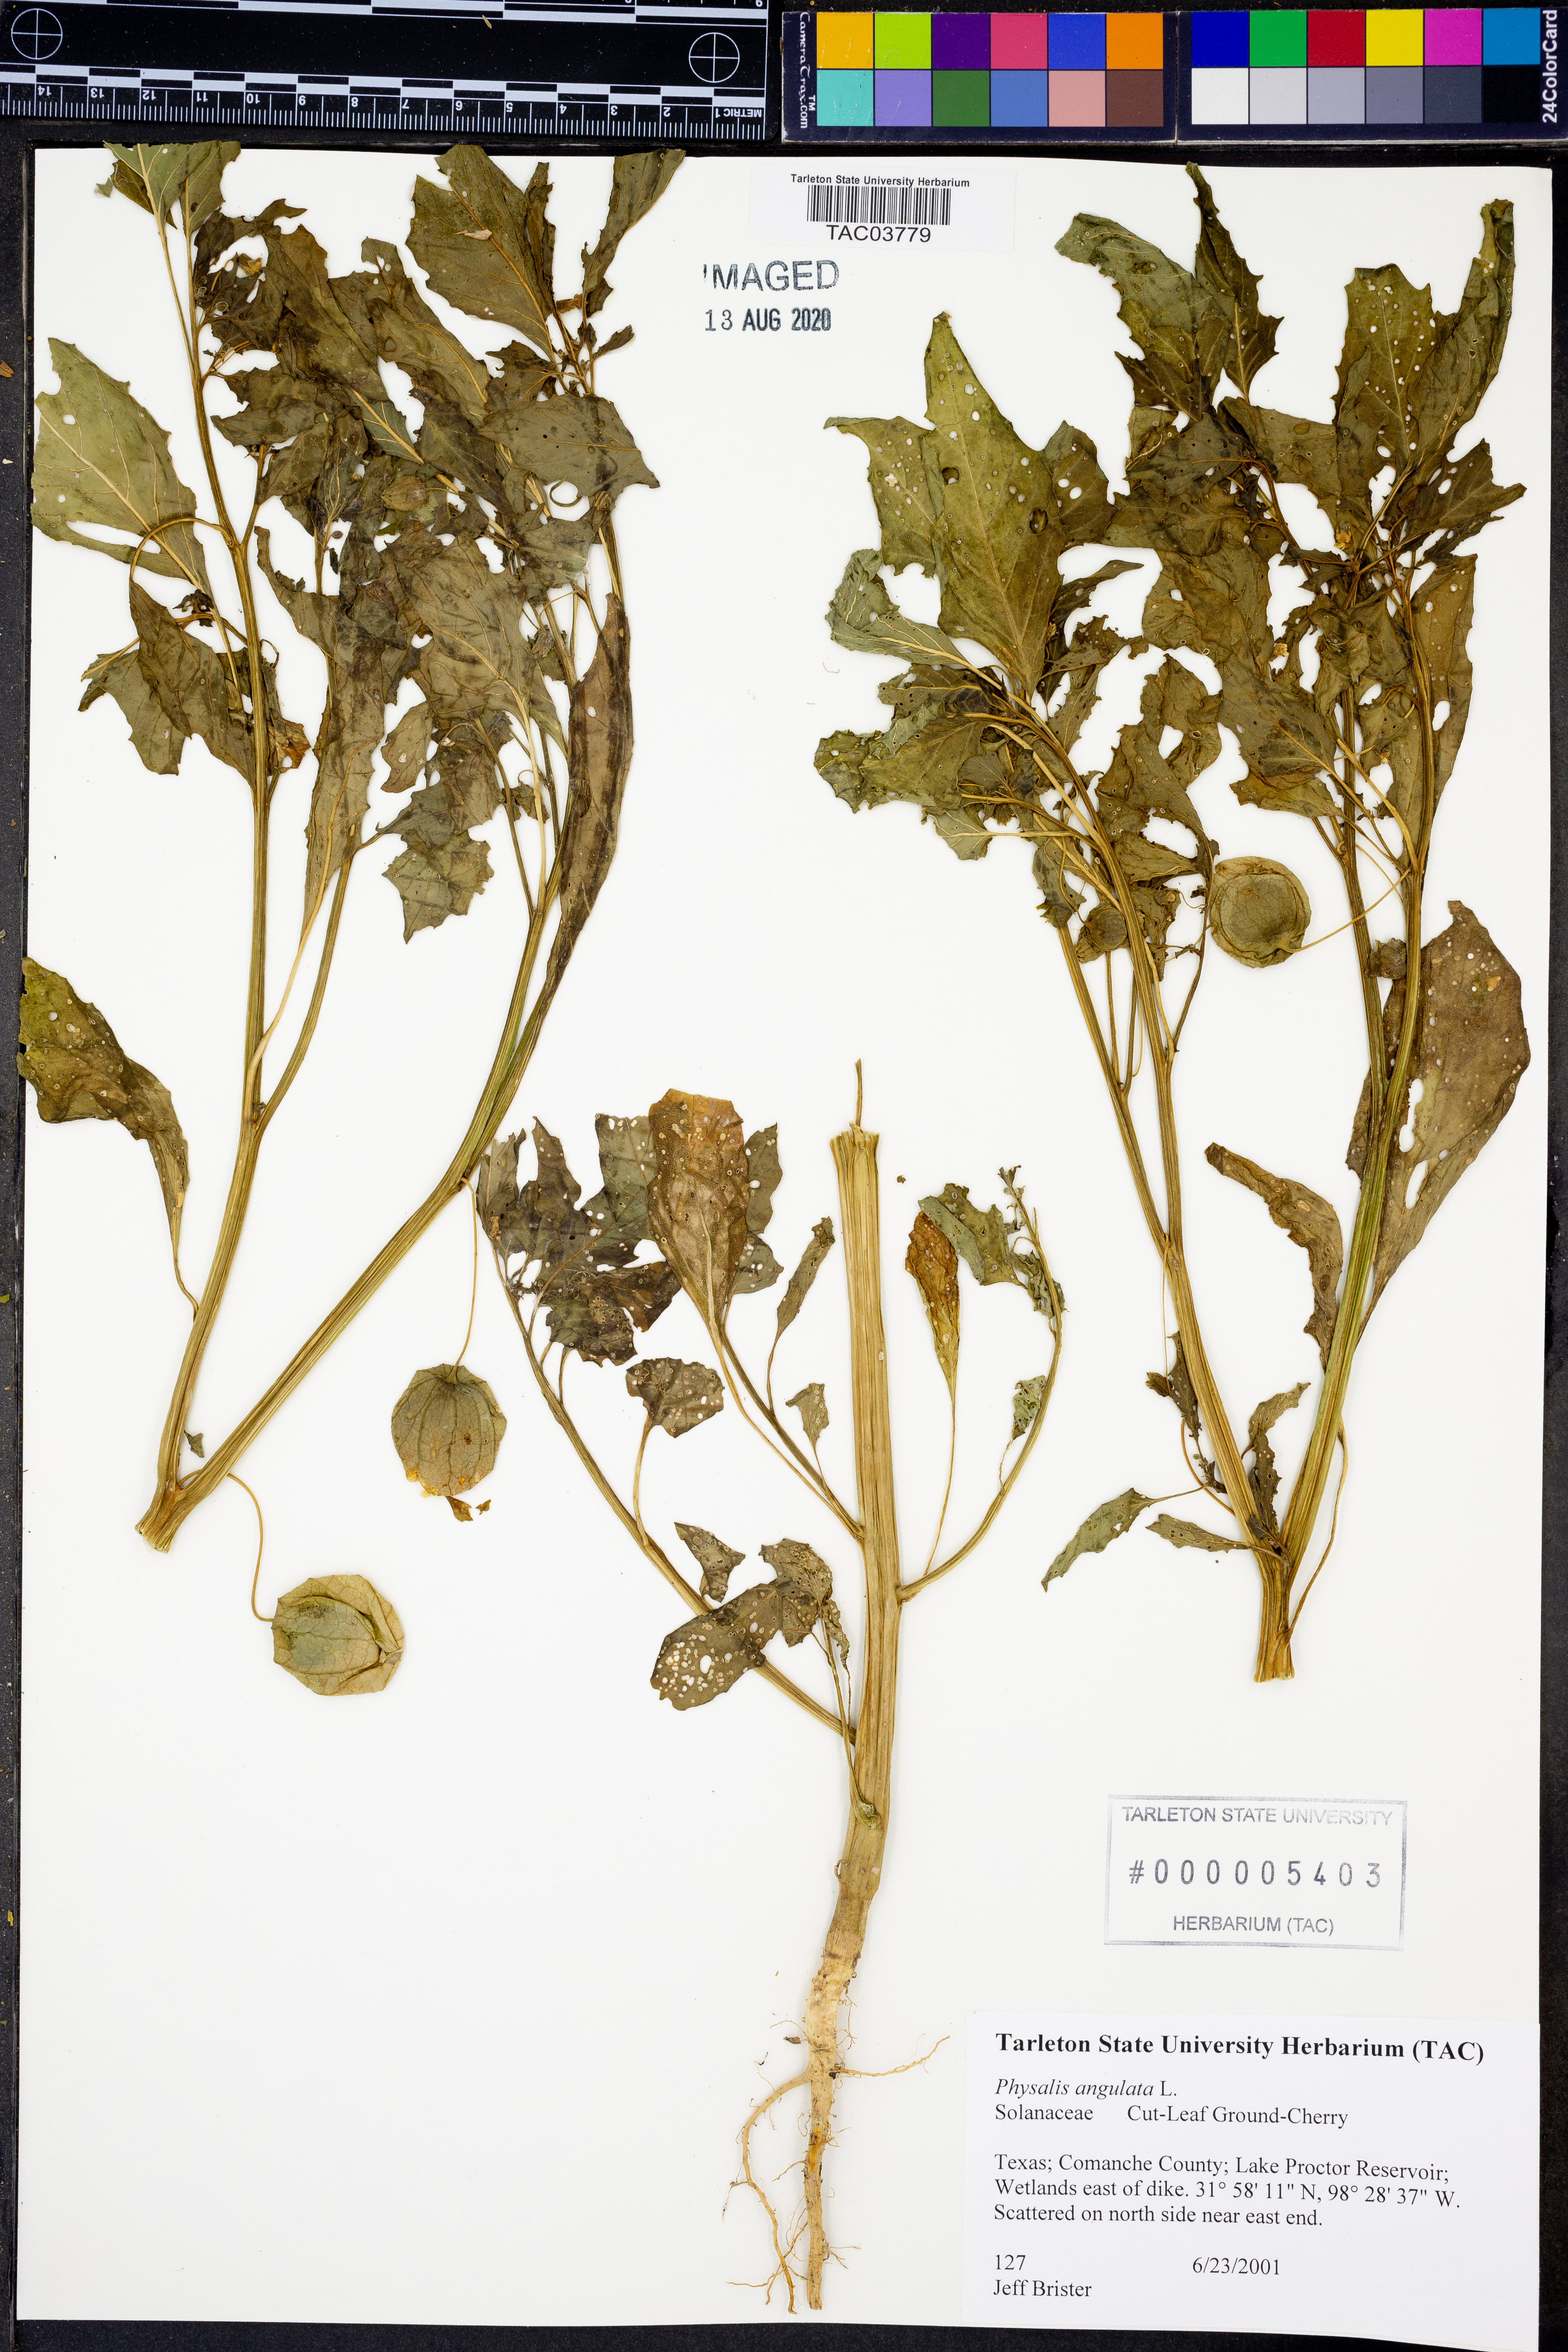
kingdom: Plantae
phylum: Tracheophyta
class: Magnoliopsida
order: Solanales
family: Solanaceae
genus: Physalis
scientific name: Physalis angulata
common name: Angular winter-cherry
